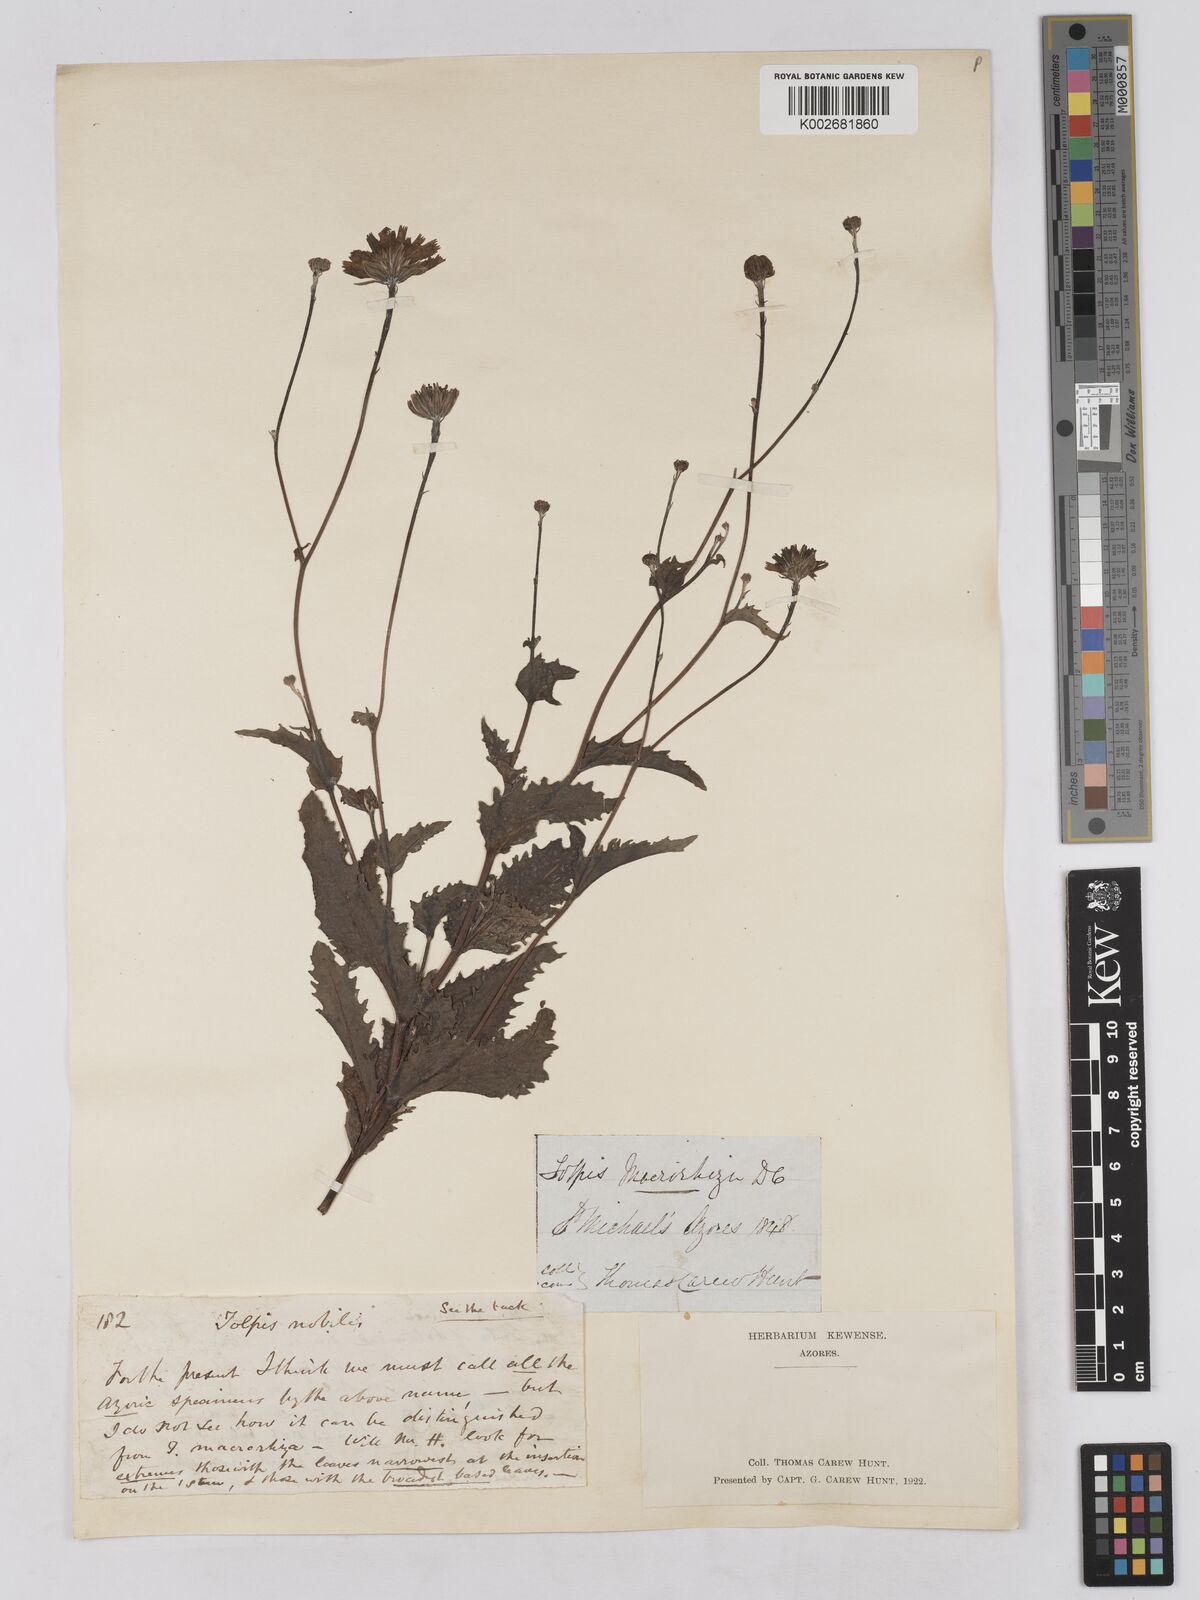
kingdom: Plantae
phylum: Tracheophyta
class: Magnoliopsida
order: Asterales
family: Asteraceae
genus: Tolpis
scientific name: Tolpis nobilis
